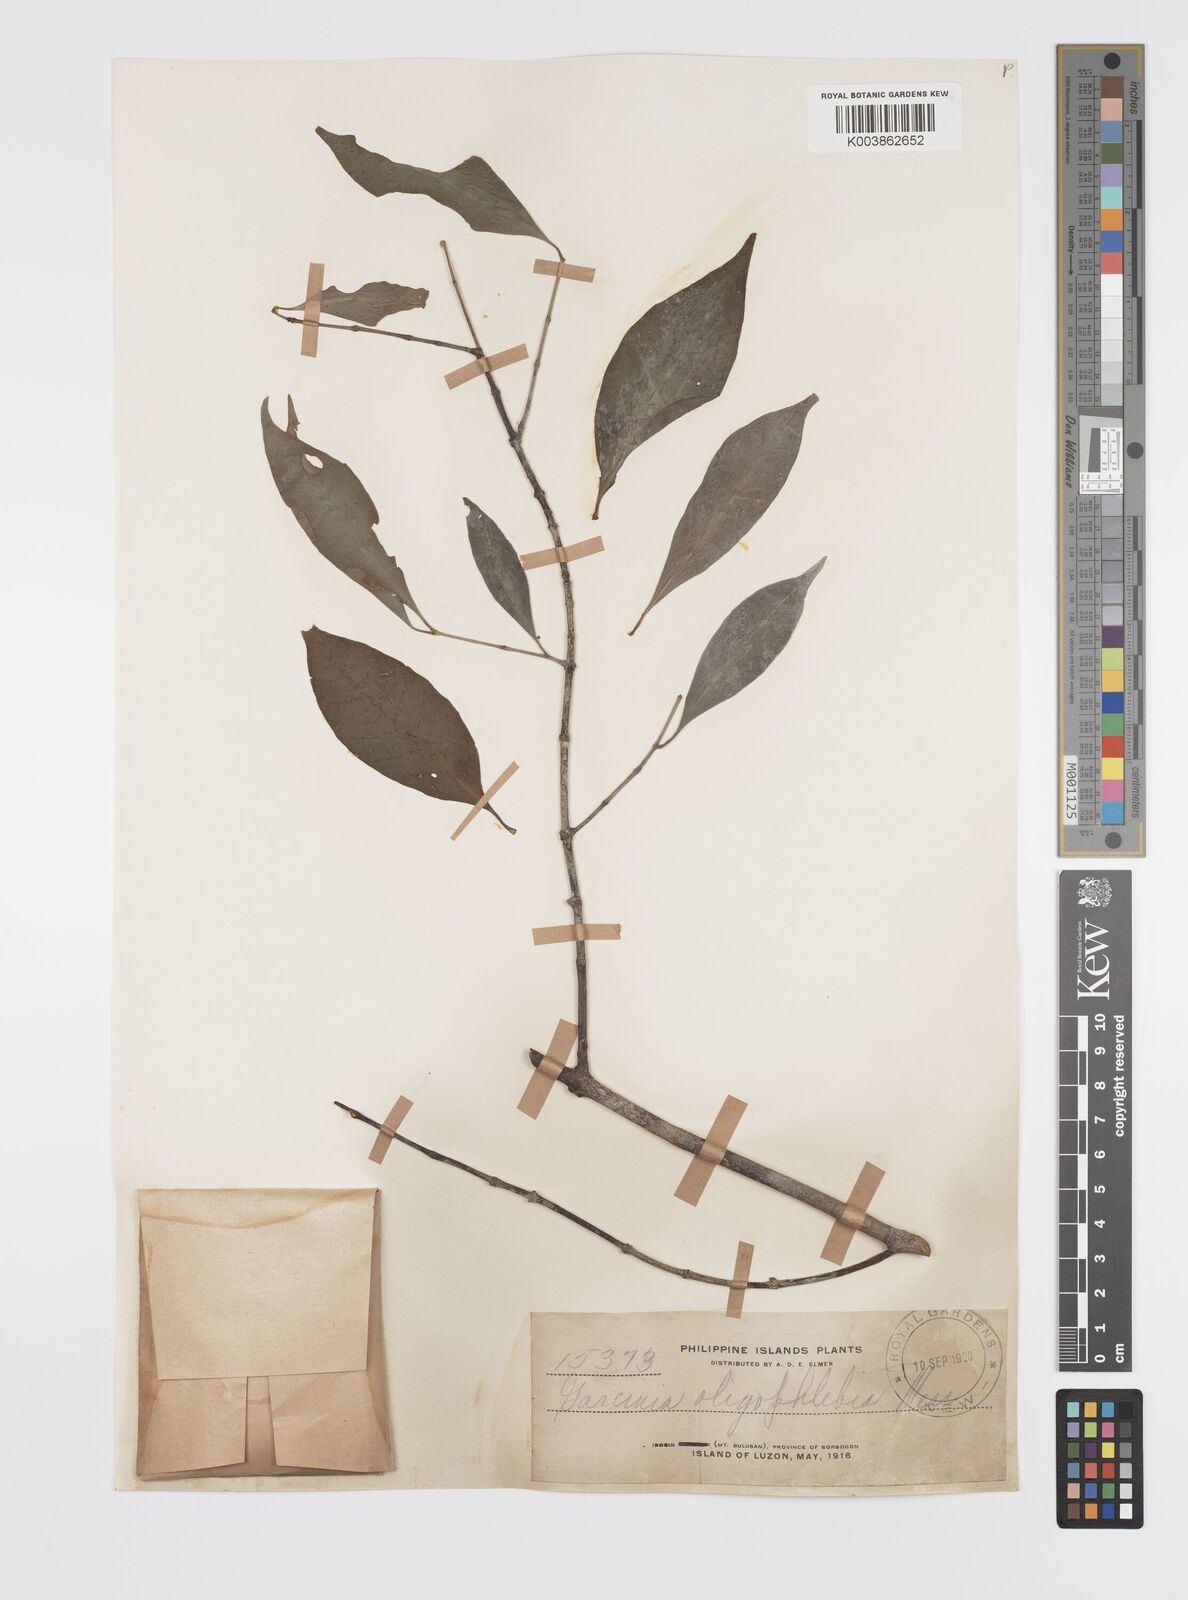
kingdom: Plantae
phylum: Tracheophyta
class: Magnoliopsida
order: Malpighiales
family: Clusiaceae
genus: Garcinia
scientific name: Garcinia rubra
